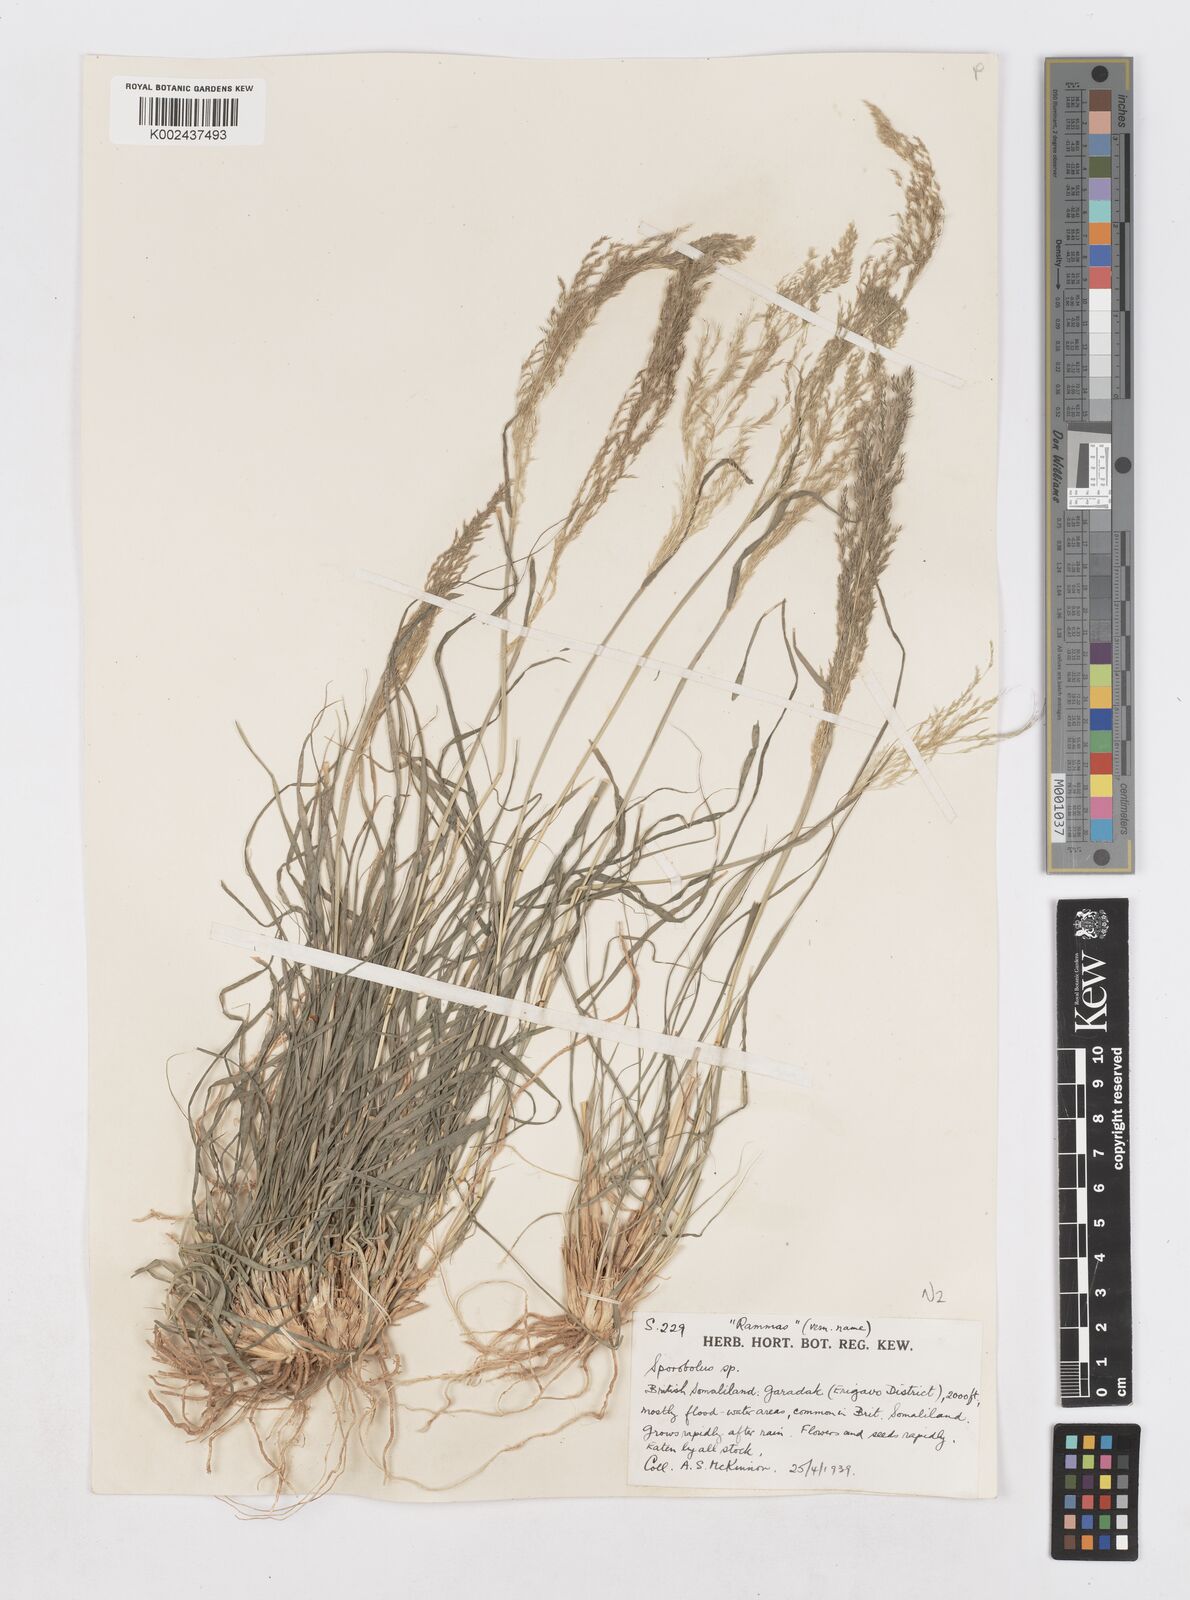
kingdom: Plantae
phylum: Tracheophyta
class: Liliopsida
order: Poales
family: Poaceae
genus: Sporobolus
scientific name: Sporobolus nervosus
